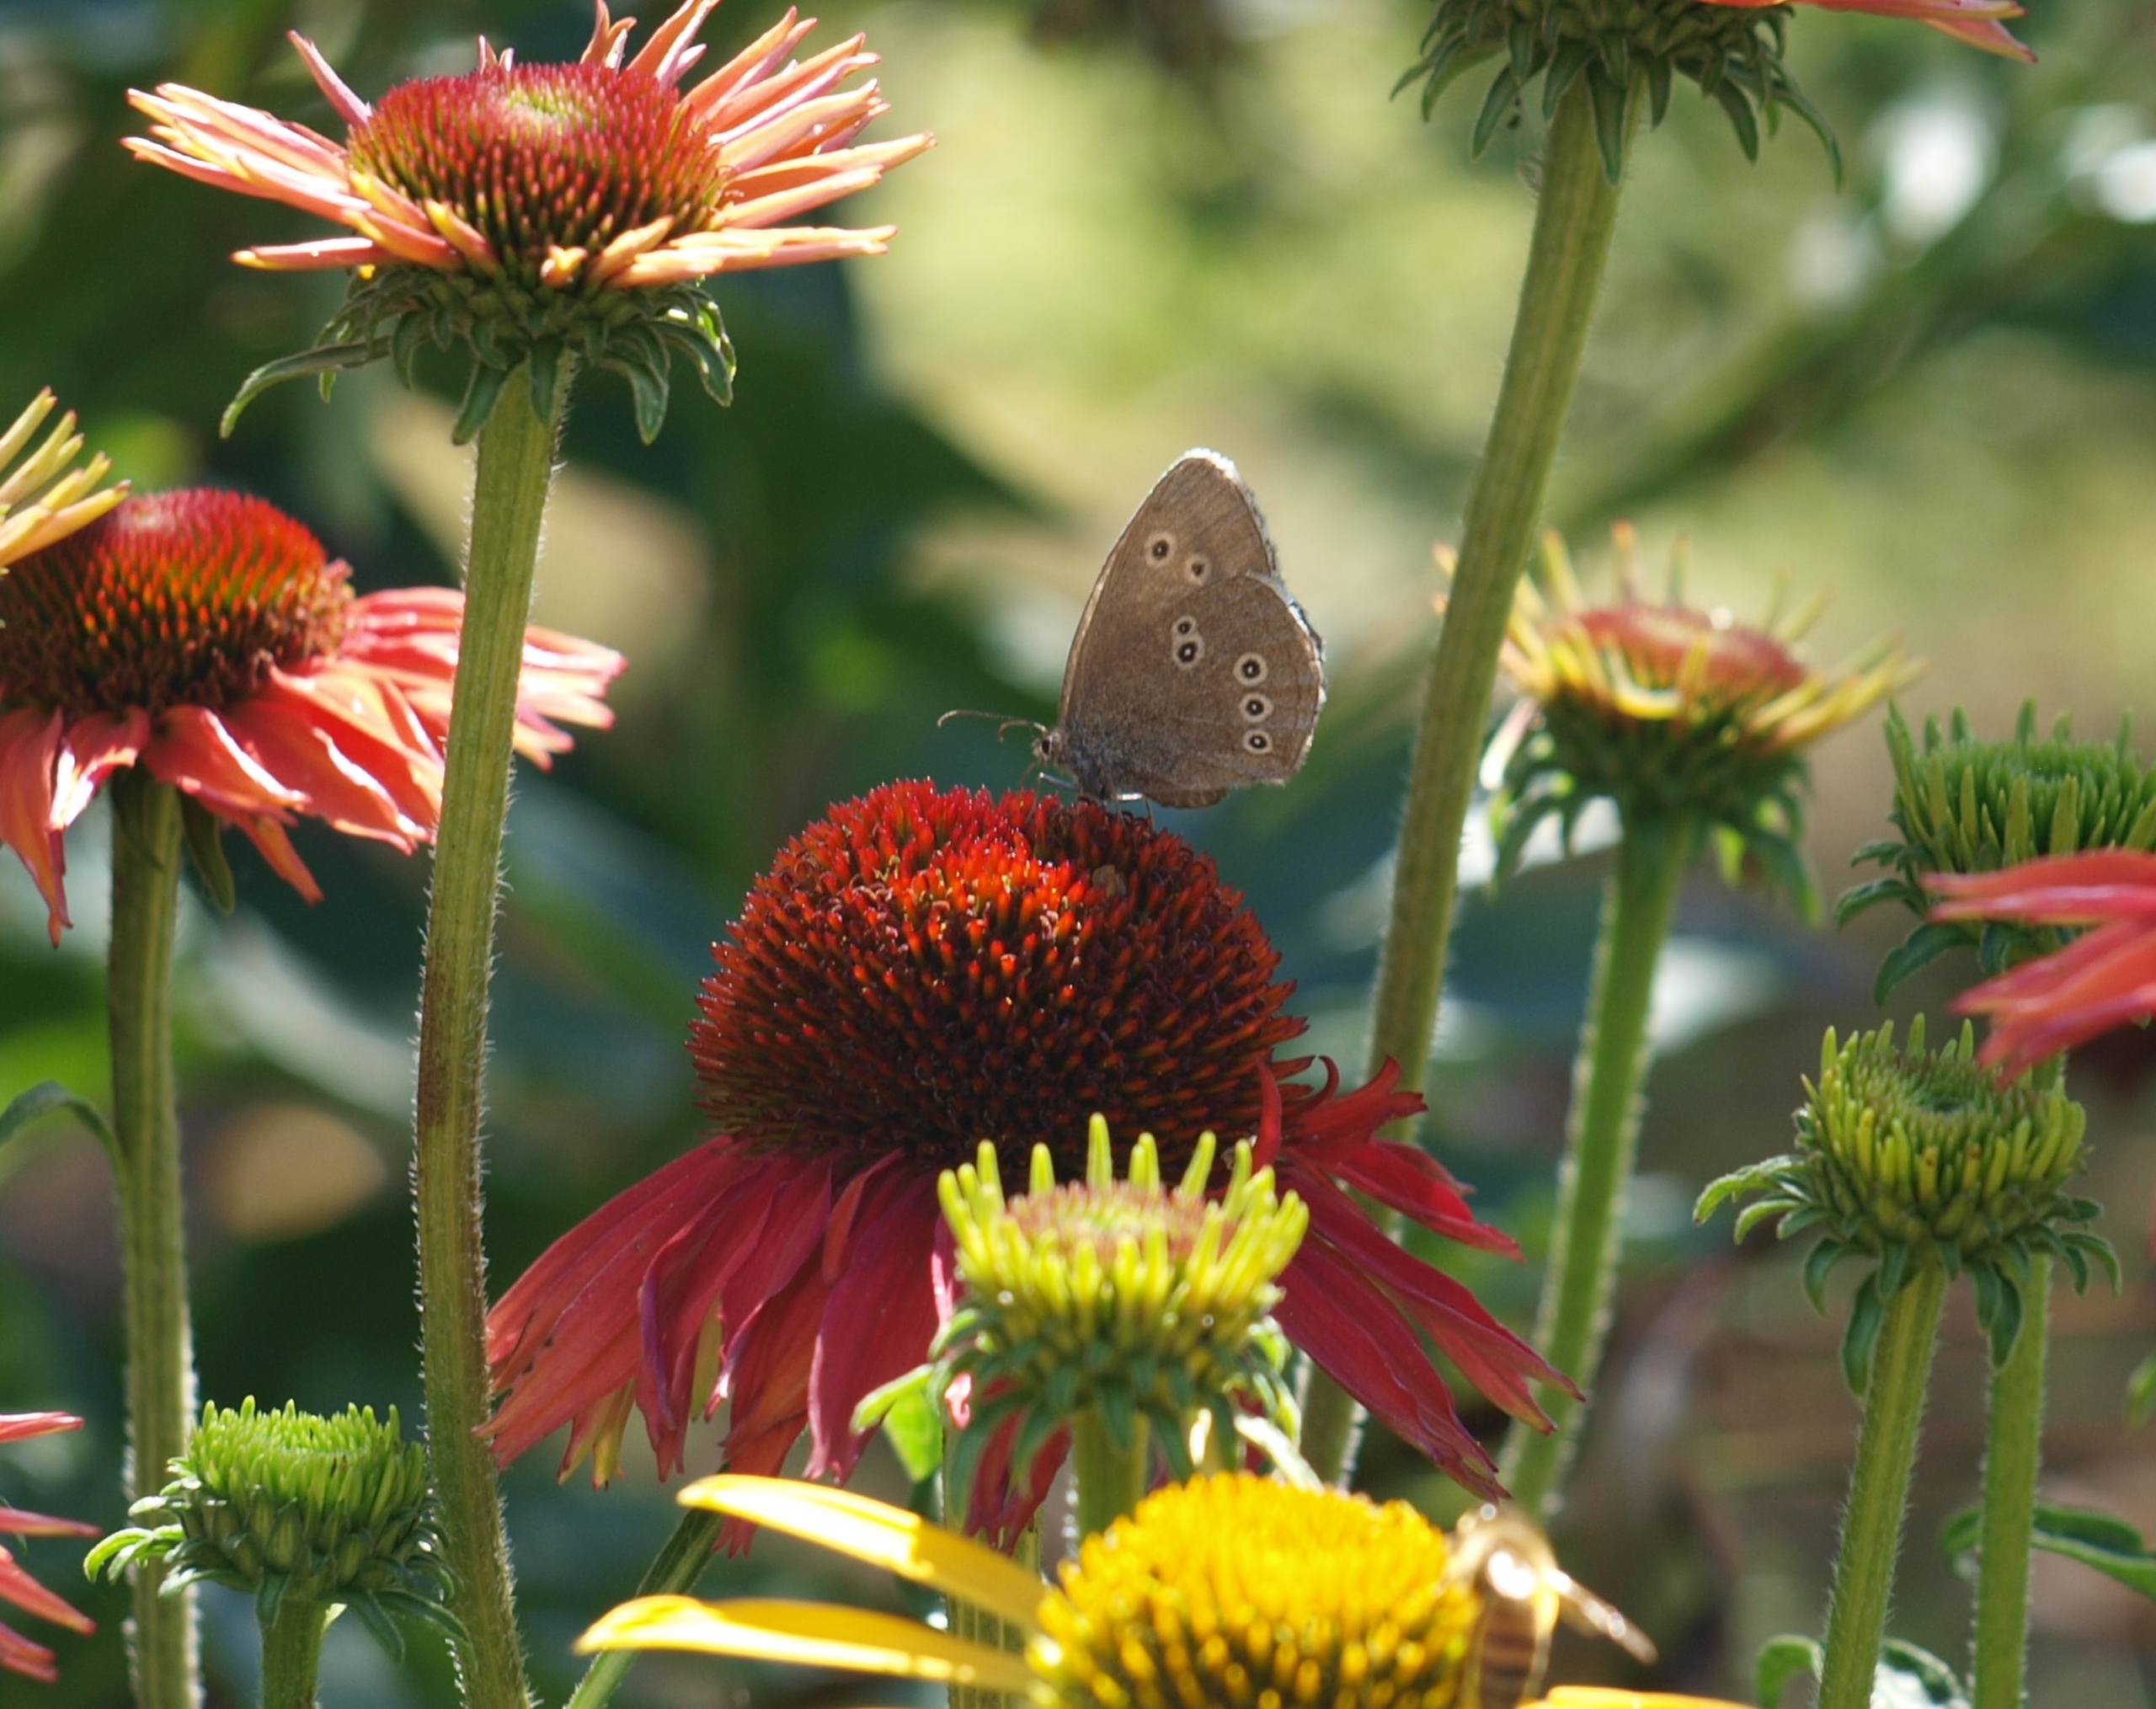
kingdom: Animalia
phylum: Arthropoda
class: Insecta
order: Lepidoptera
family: Nymphalidae
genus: Aphantopus
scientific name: Aphantopus hyperantus
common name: Engrandøje
